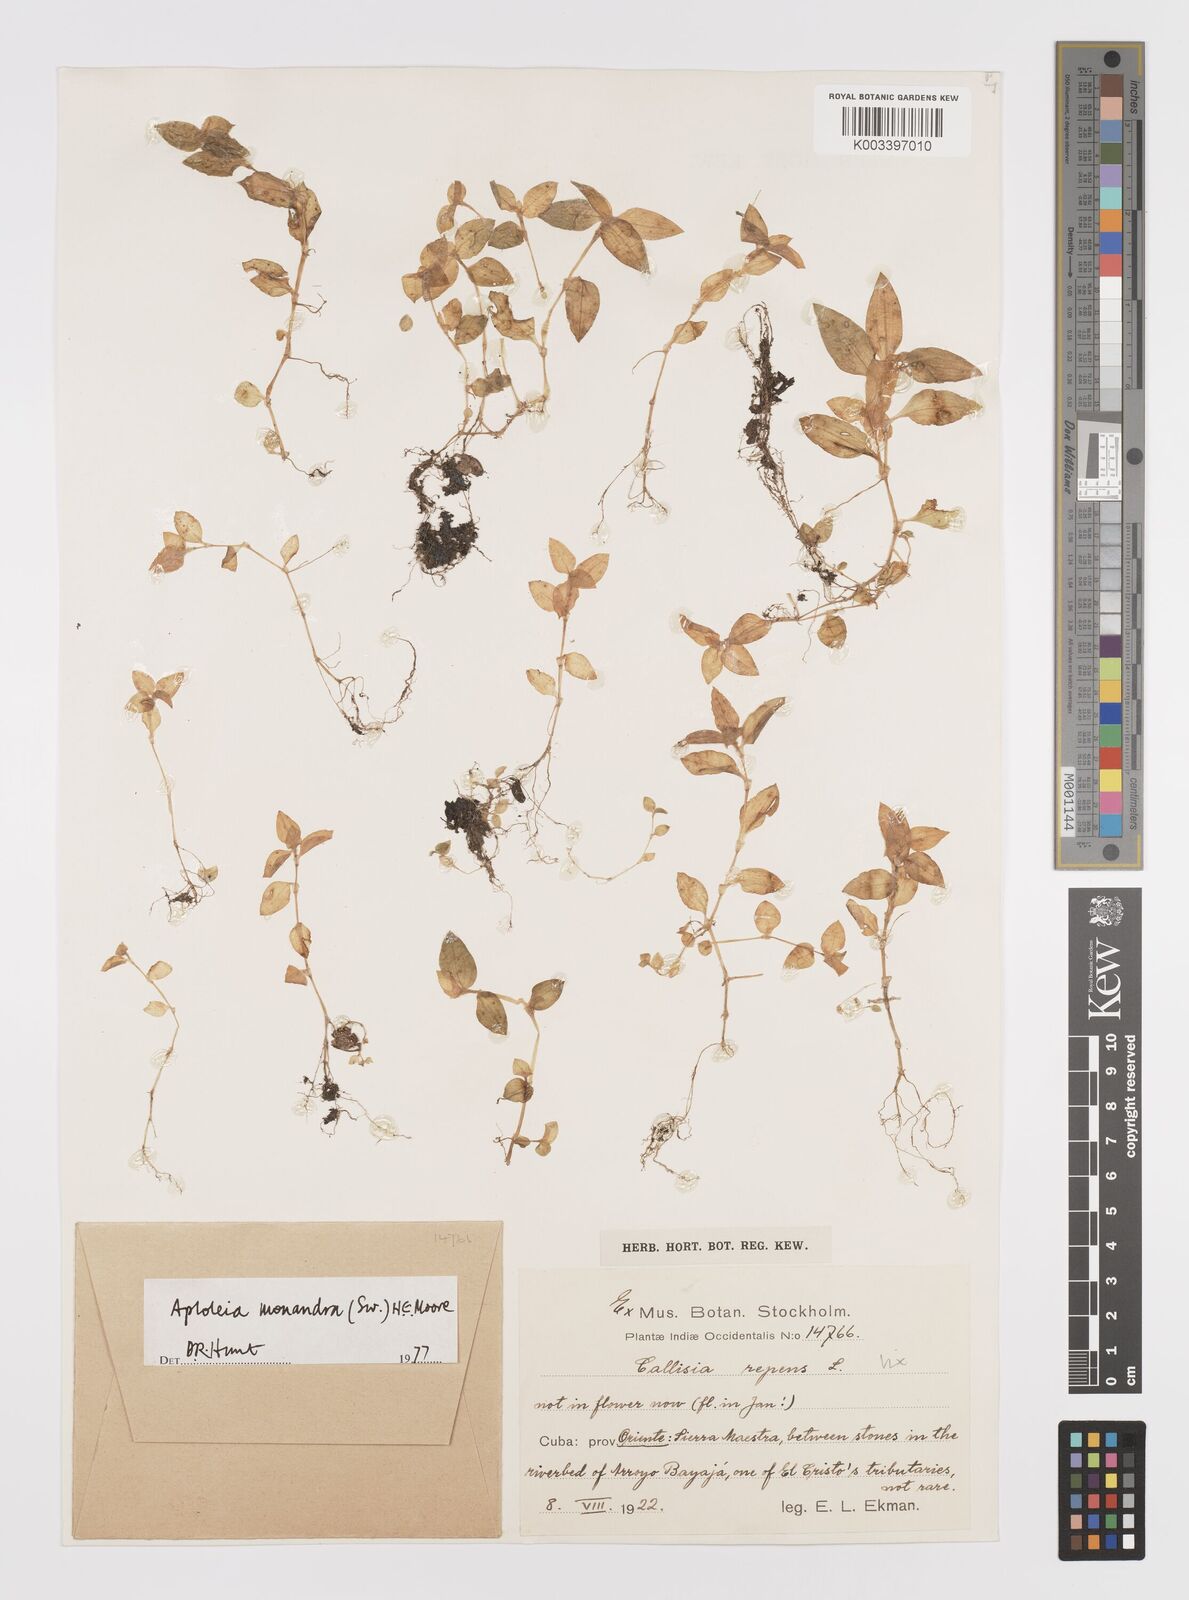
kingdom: Plantae
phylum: Tracheophyta
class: Liliopsida
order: Commelinales
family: Commelinaceae
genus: Callisia
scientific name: Callisia monandra
